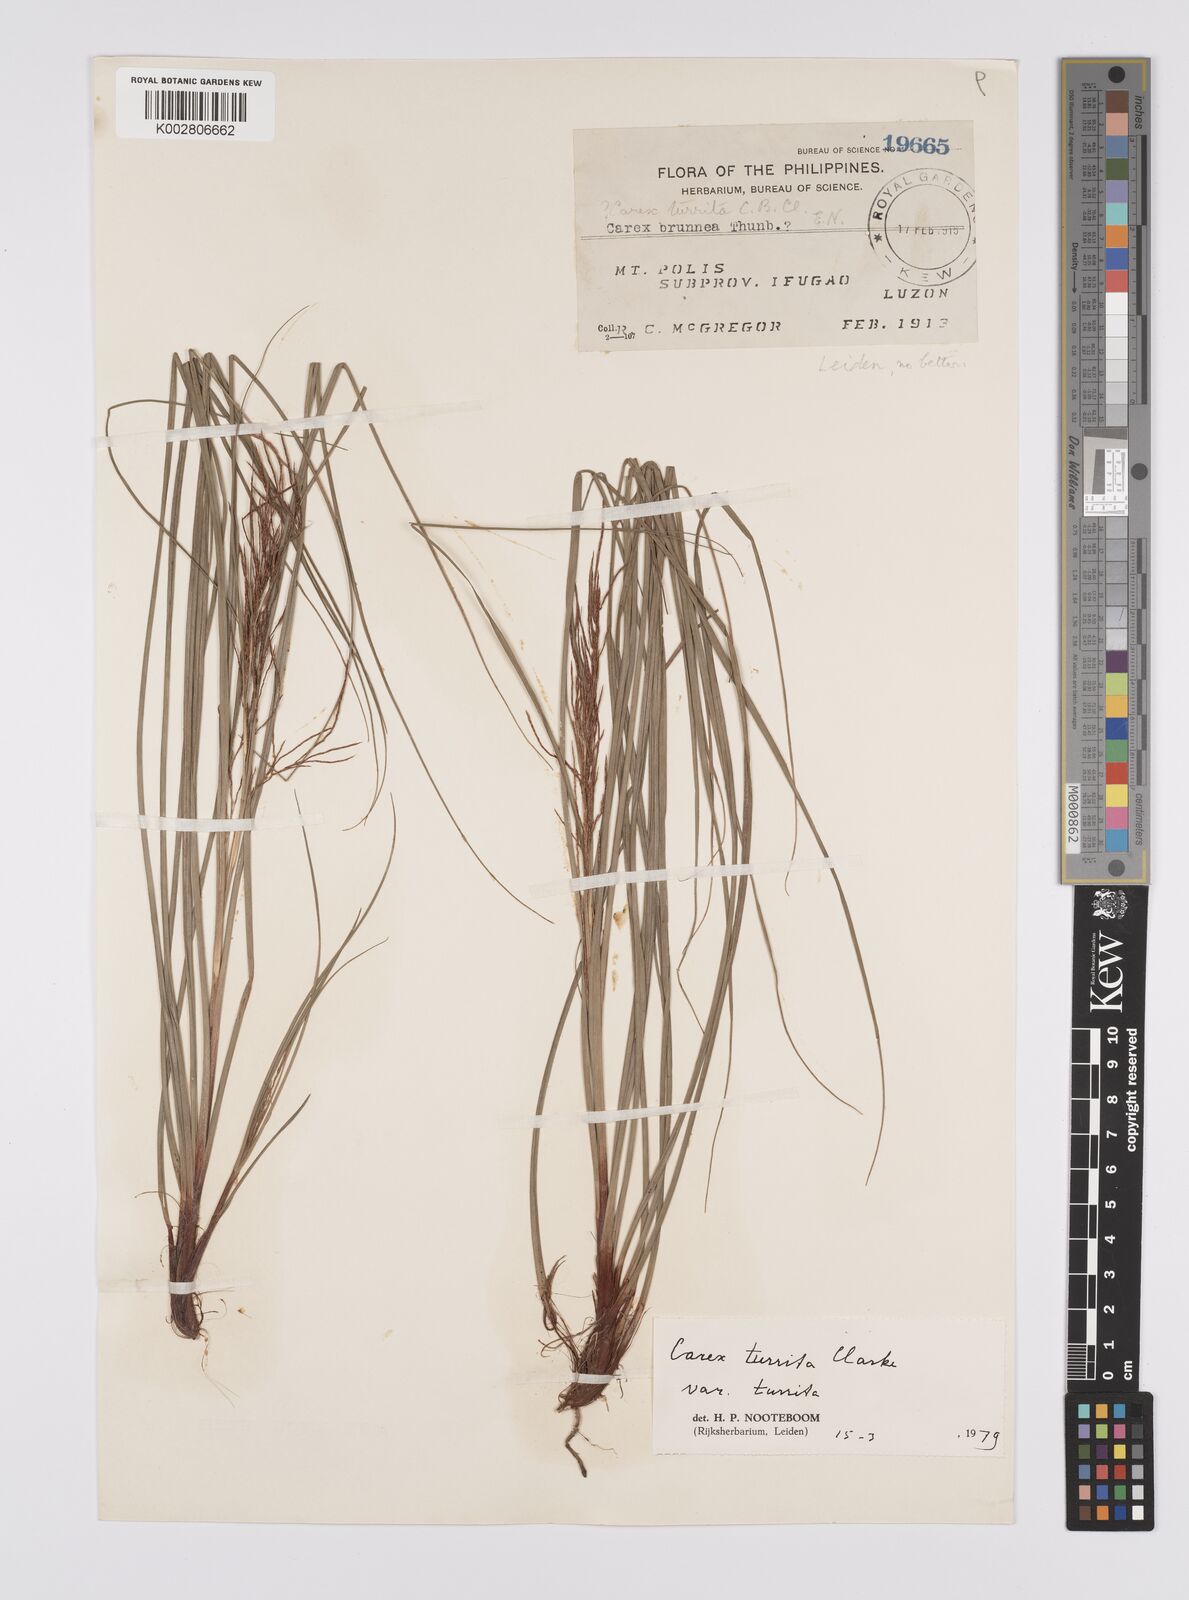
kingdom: Plantae
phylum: Tracheophyta
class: Liliopsida
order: Poales
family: Cyperaceae
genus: Carex
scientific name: Carex turrita
